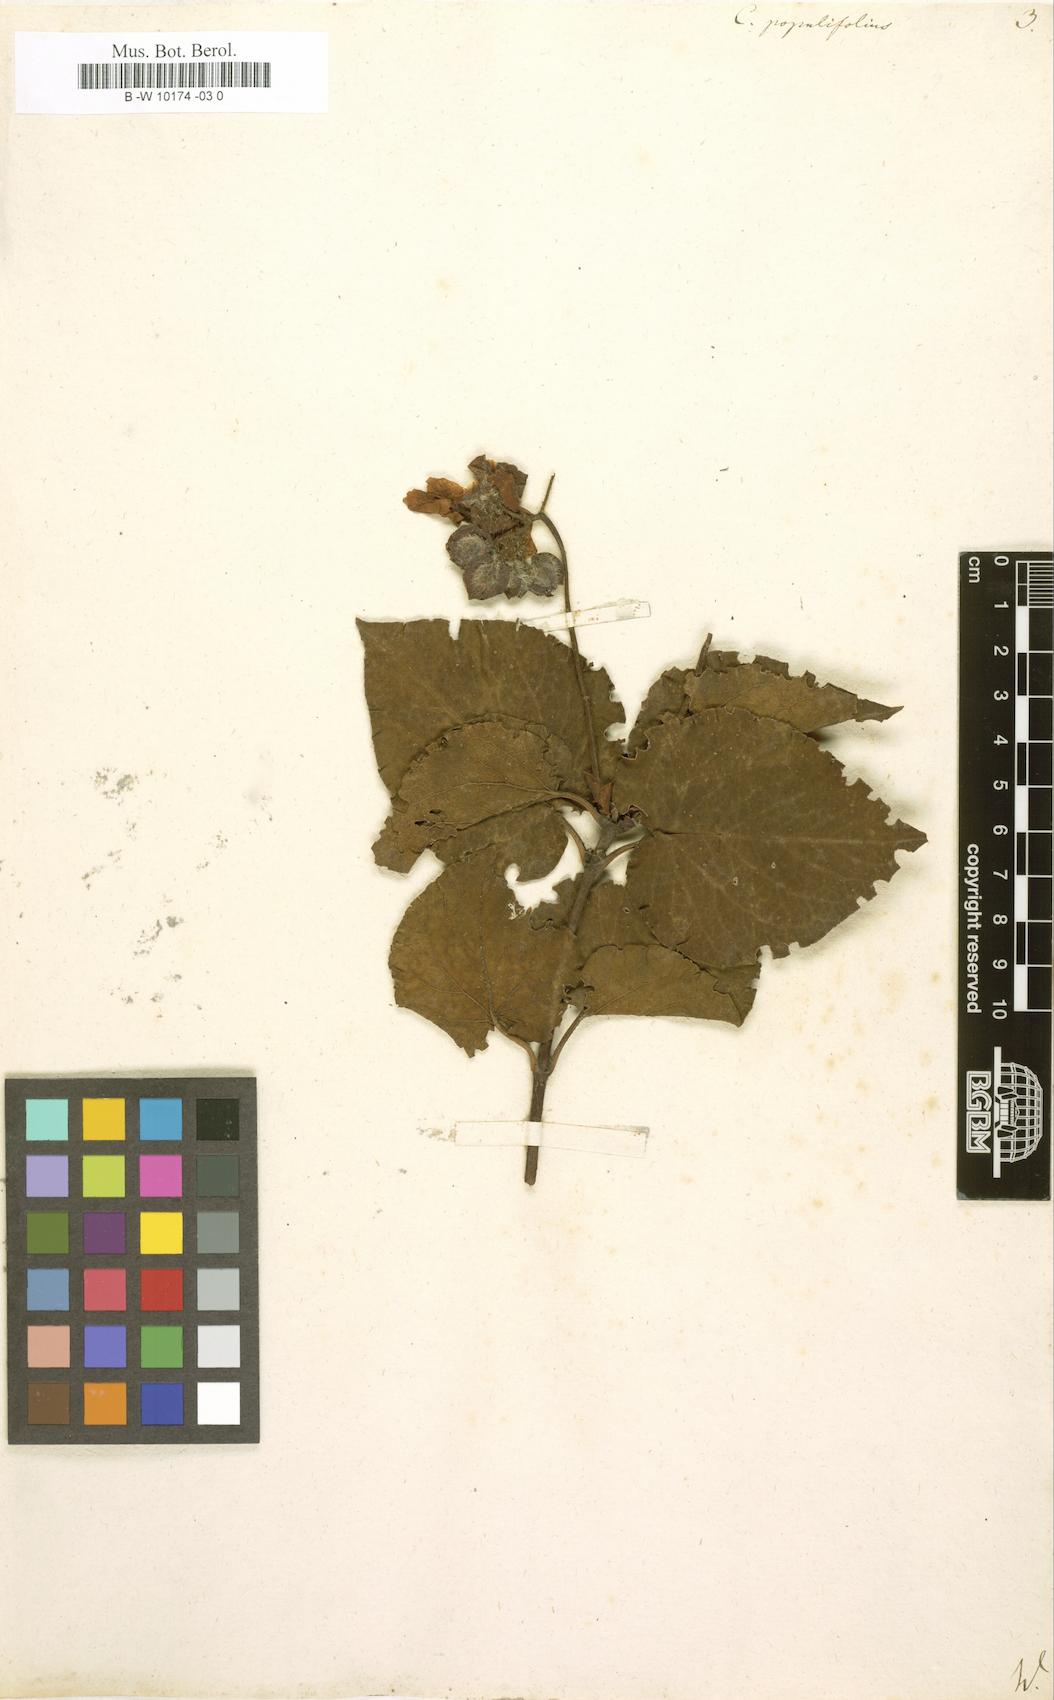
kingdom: Plantae
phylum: Tracheophyta
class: Magnoliopsida
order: Malvales
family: Cistaceae
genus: Cistus
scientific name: Cistus populifolius
